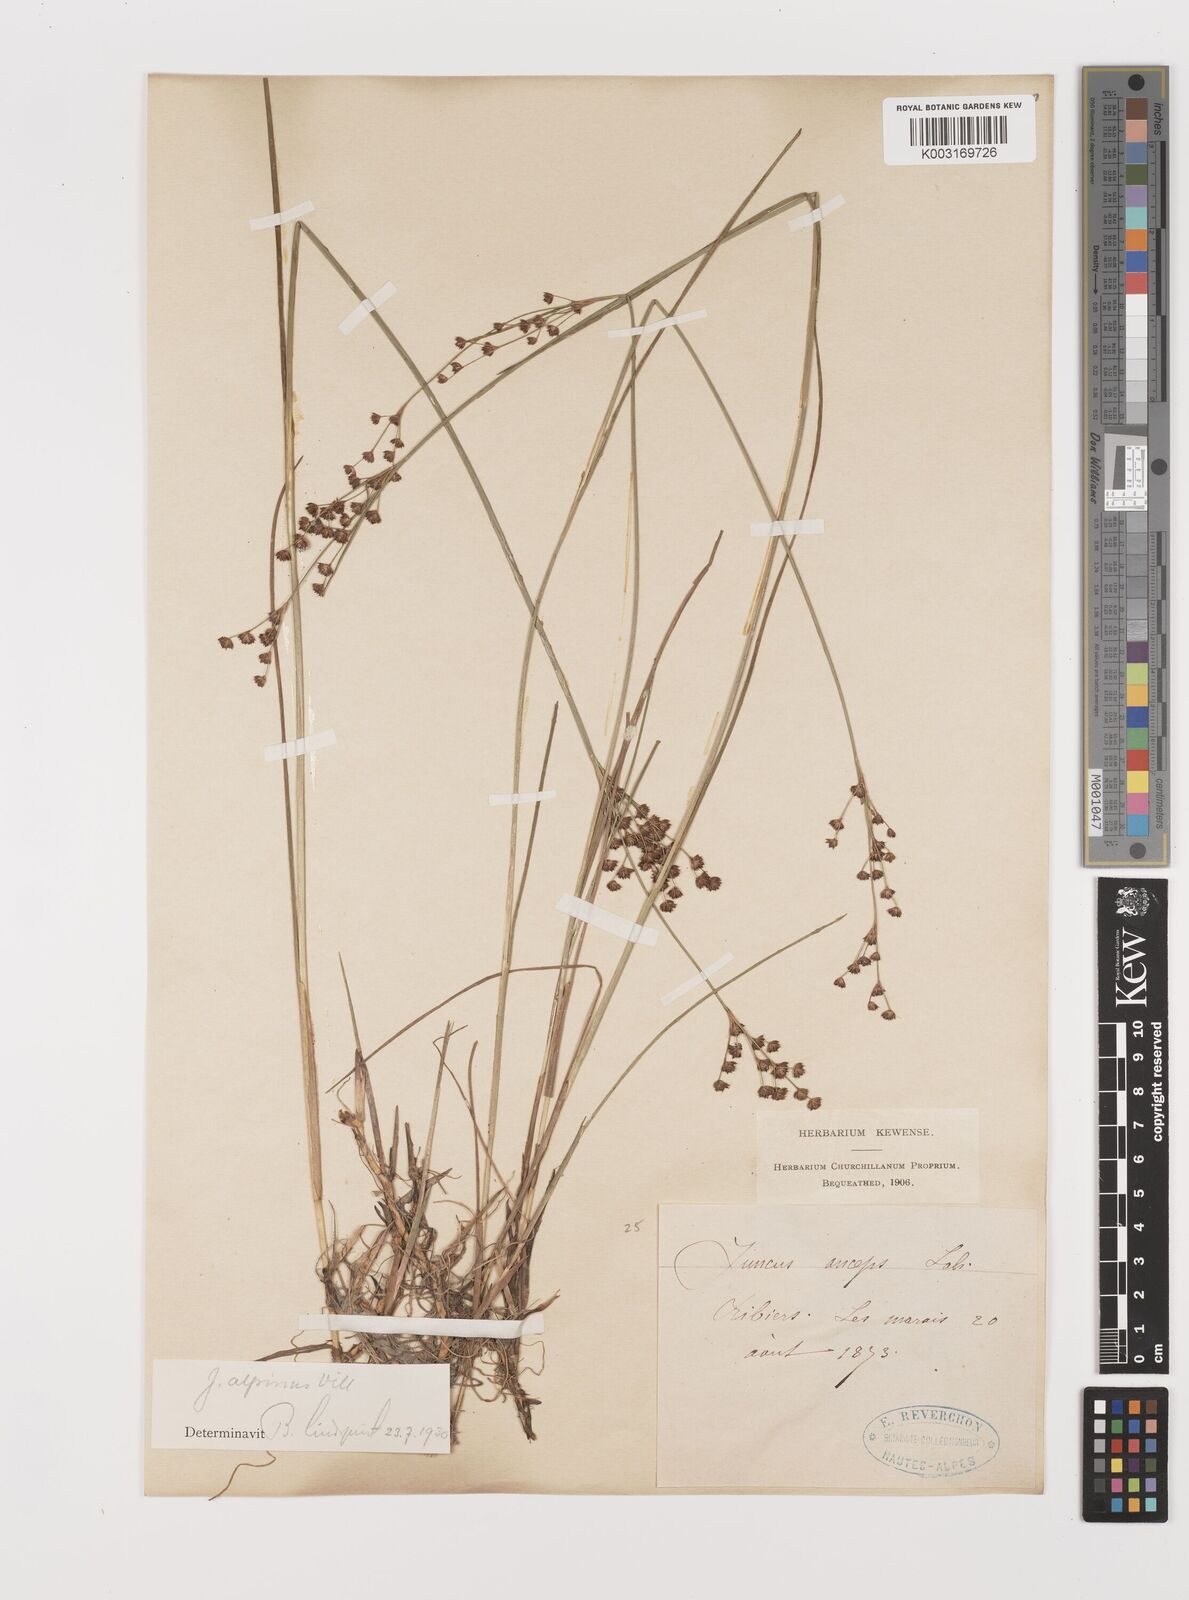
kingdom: Plantae
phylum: Tracheophyta
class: Liliopsida
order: Poales
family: Juncaceae
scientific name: Juncaceae
